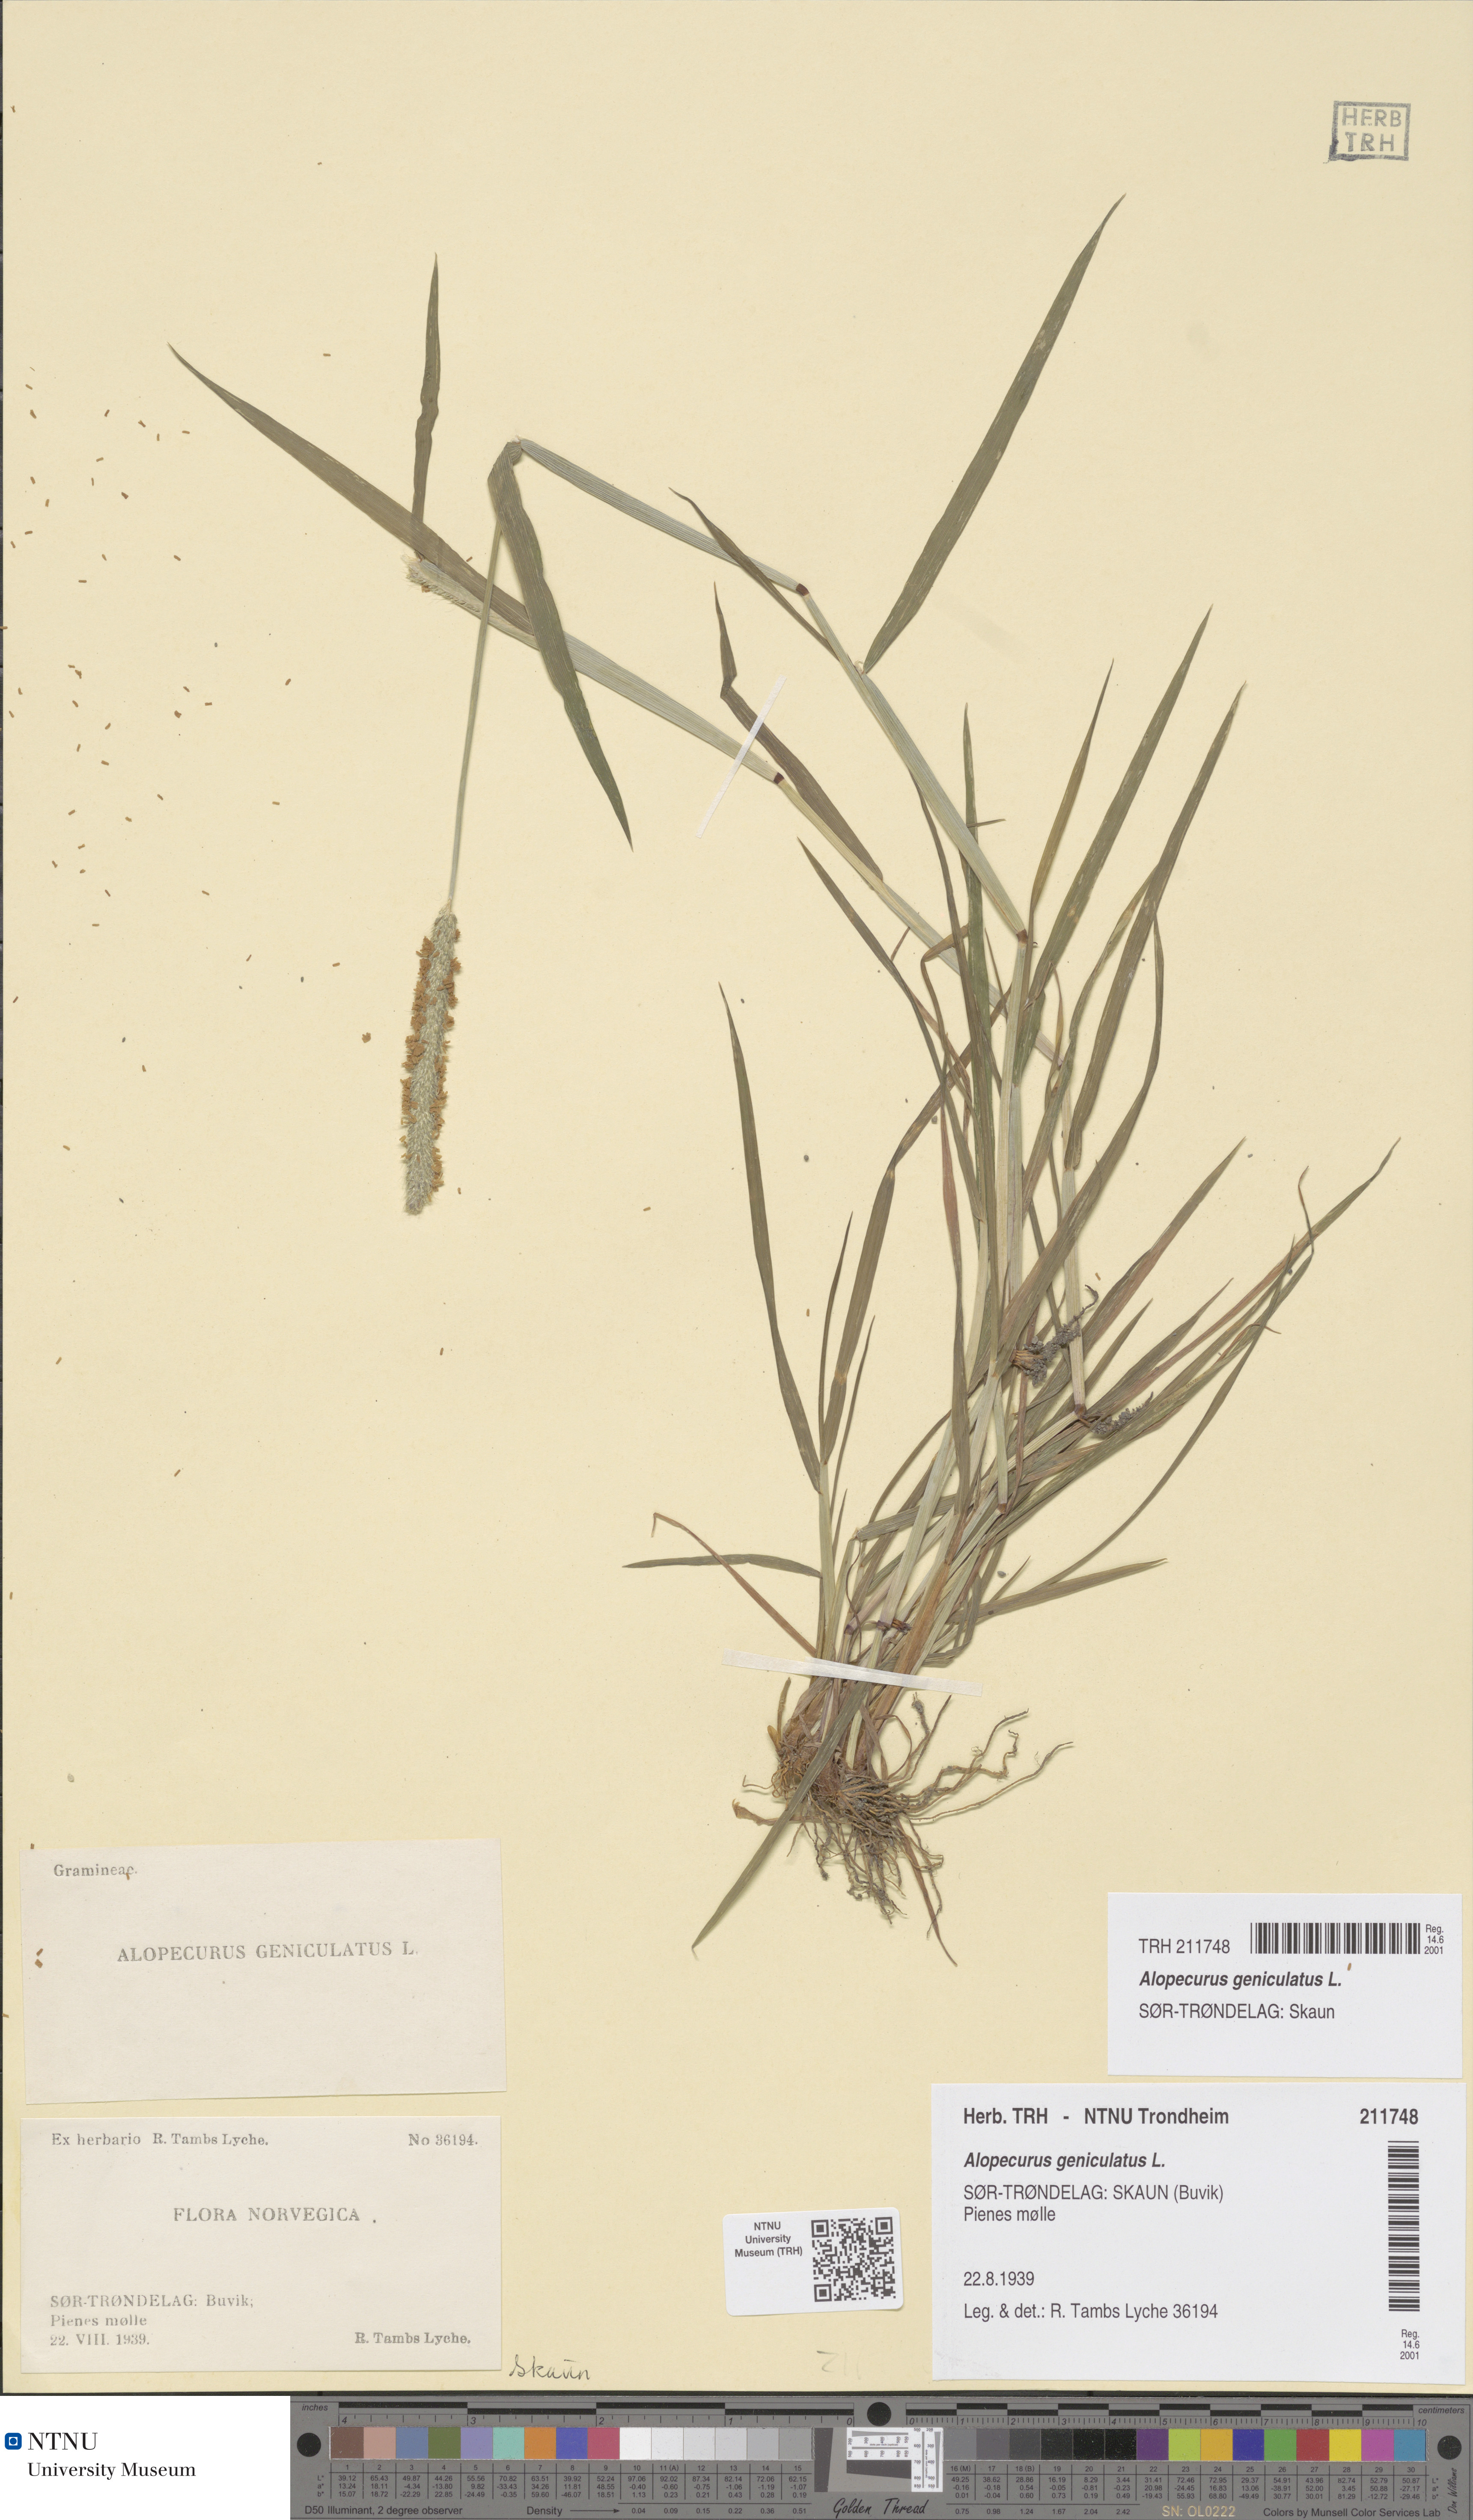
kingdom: Plantae
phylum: Tracheophyta
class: Liliopsida
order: Poales
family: Poaceae
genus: Alopecurus
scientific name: Alopecurus geniculatus
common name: Water foxtail
